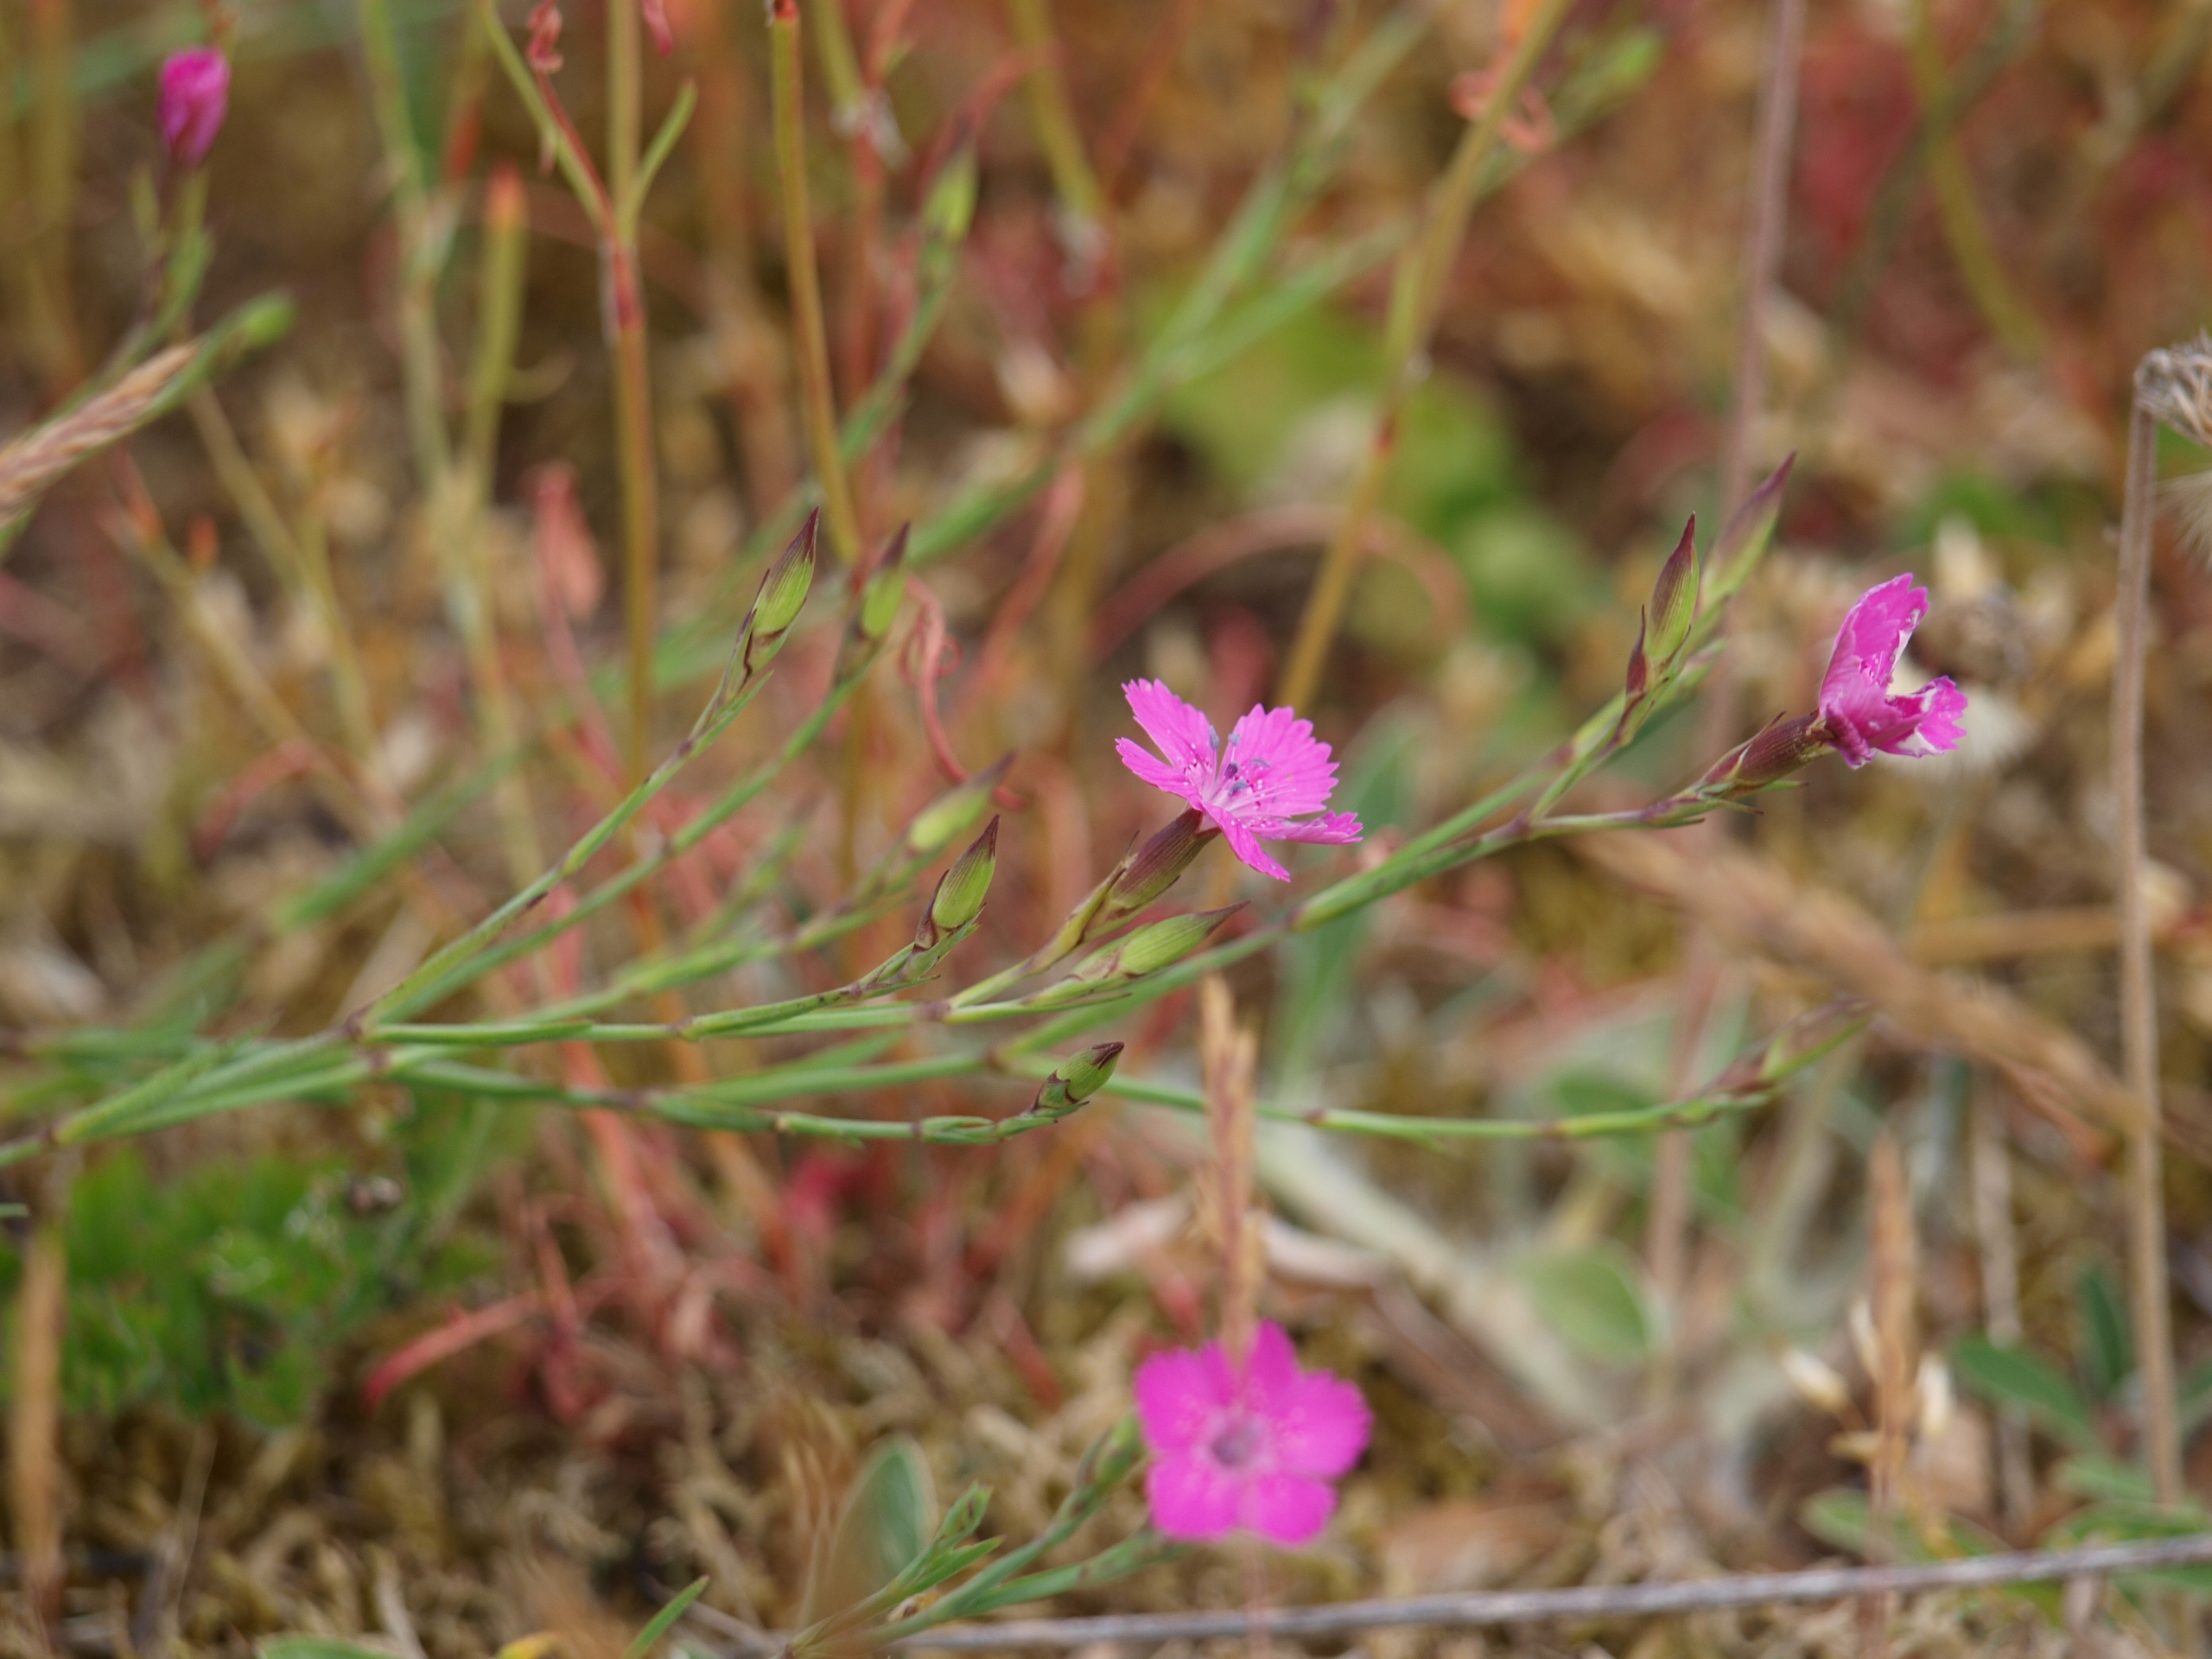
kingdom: Plantae
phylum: Tracheophyta
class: Magnoliopsida
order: Caryophyllales
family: Caryophyllaceae
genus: Dianthus
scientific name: Dianthus deltoides
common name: Bakke-nellike
